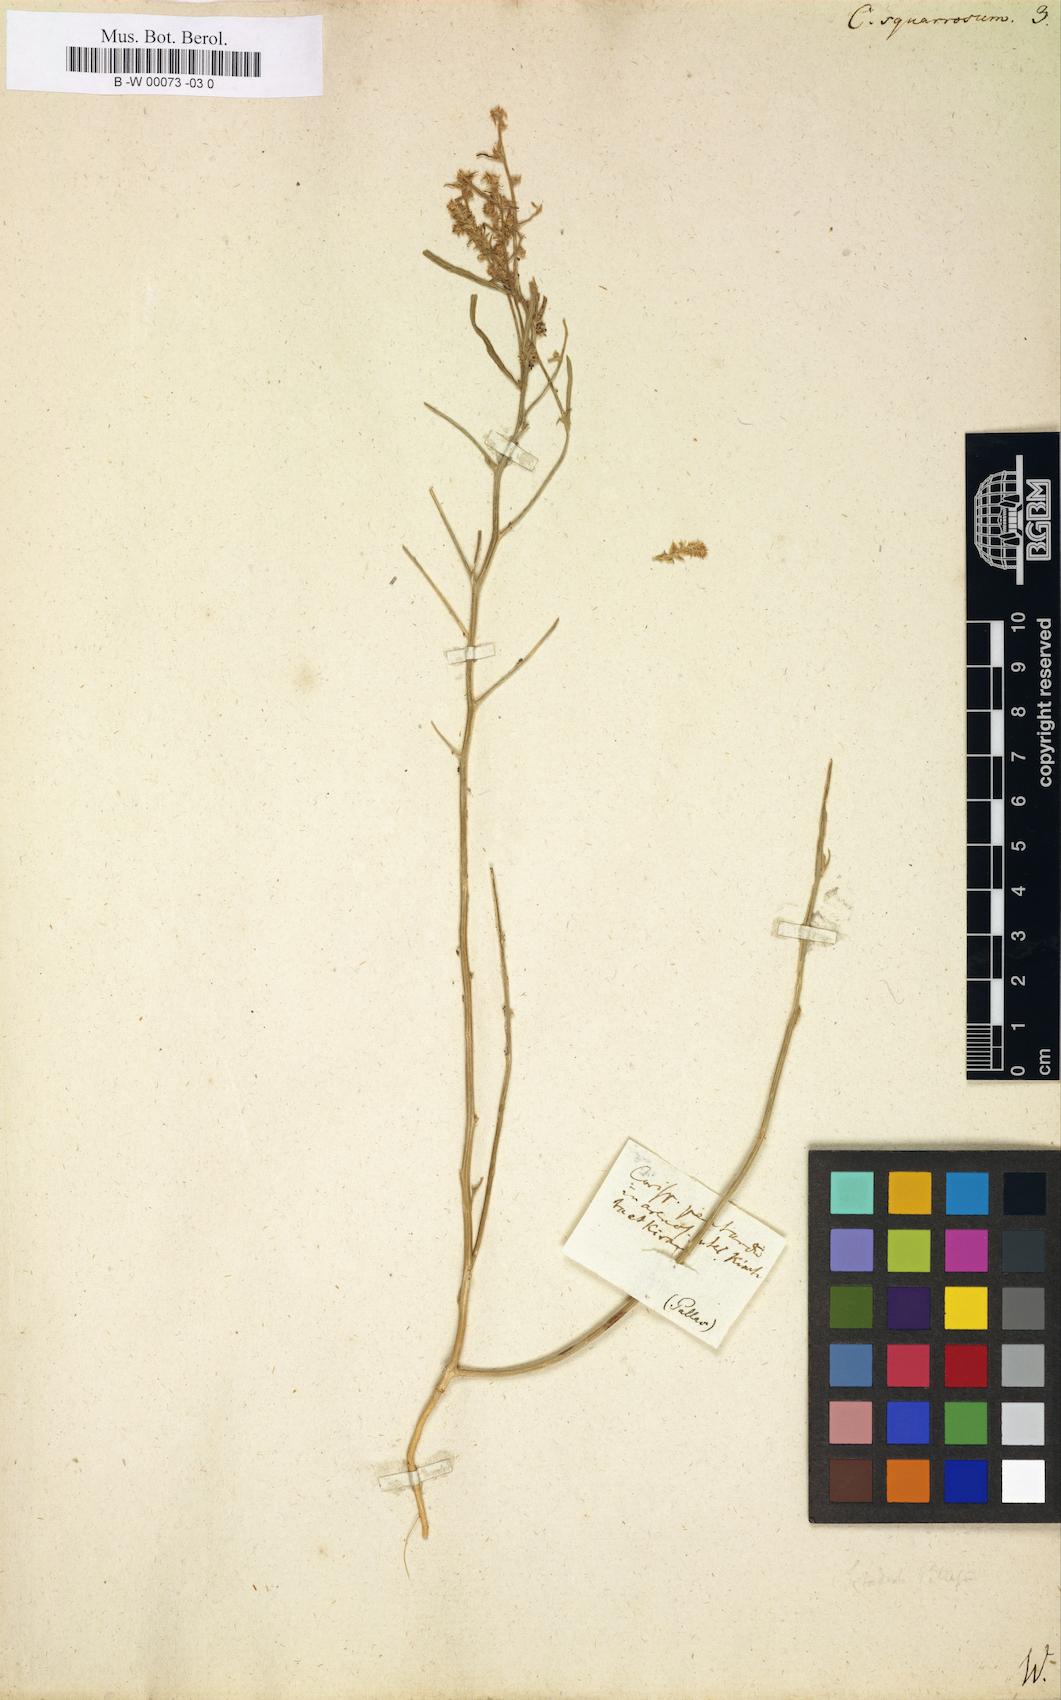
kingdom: Plantae
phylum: Tracheophyta
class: Magnoliopsida
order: Caryophyllales
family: Amaranthaceae
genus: Corispermum
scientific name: Corispermum squarrosum
